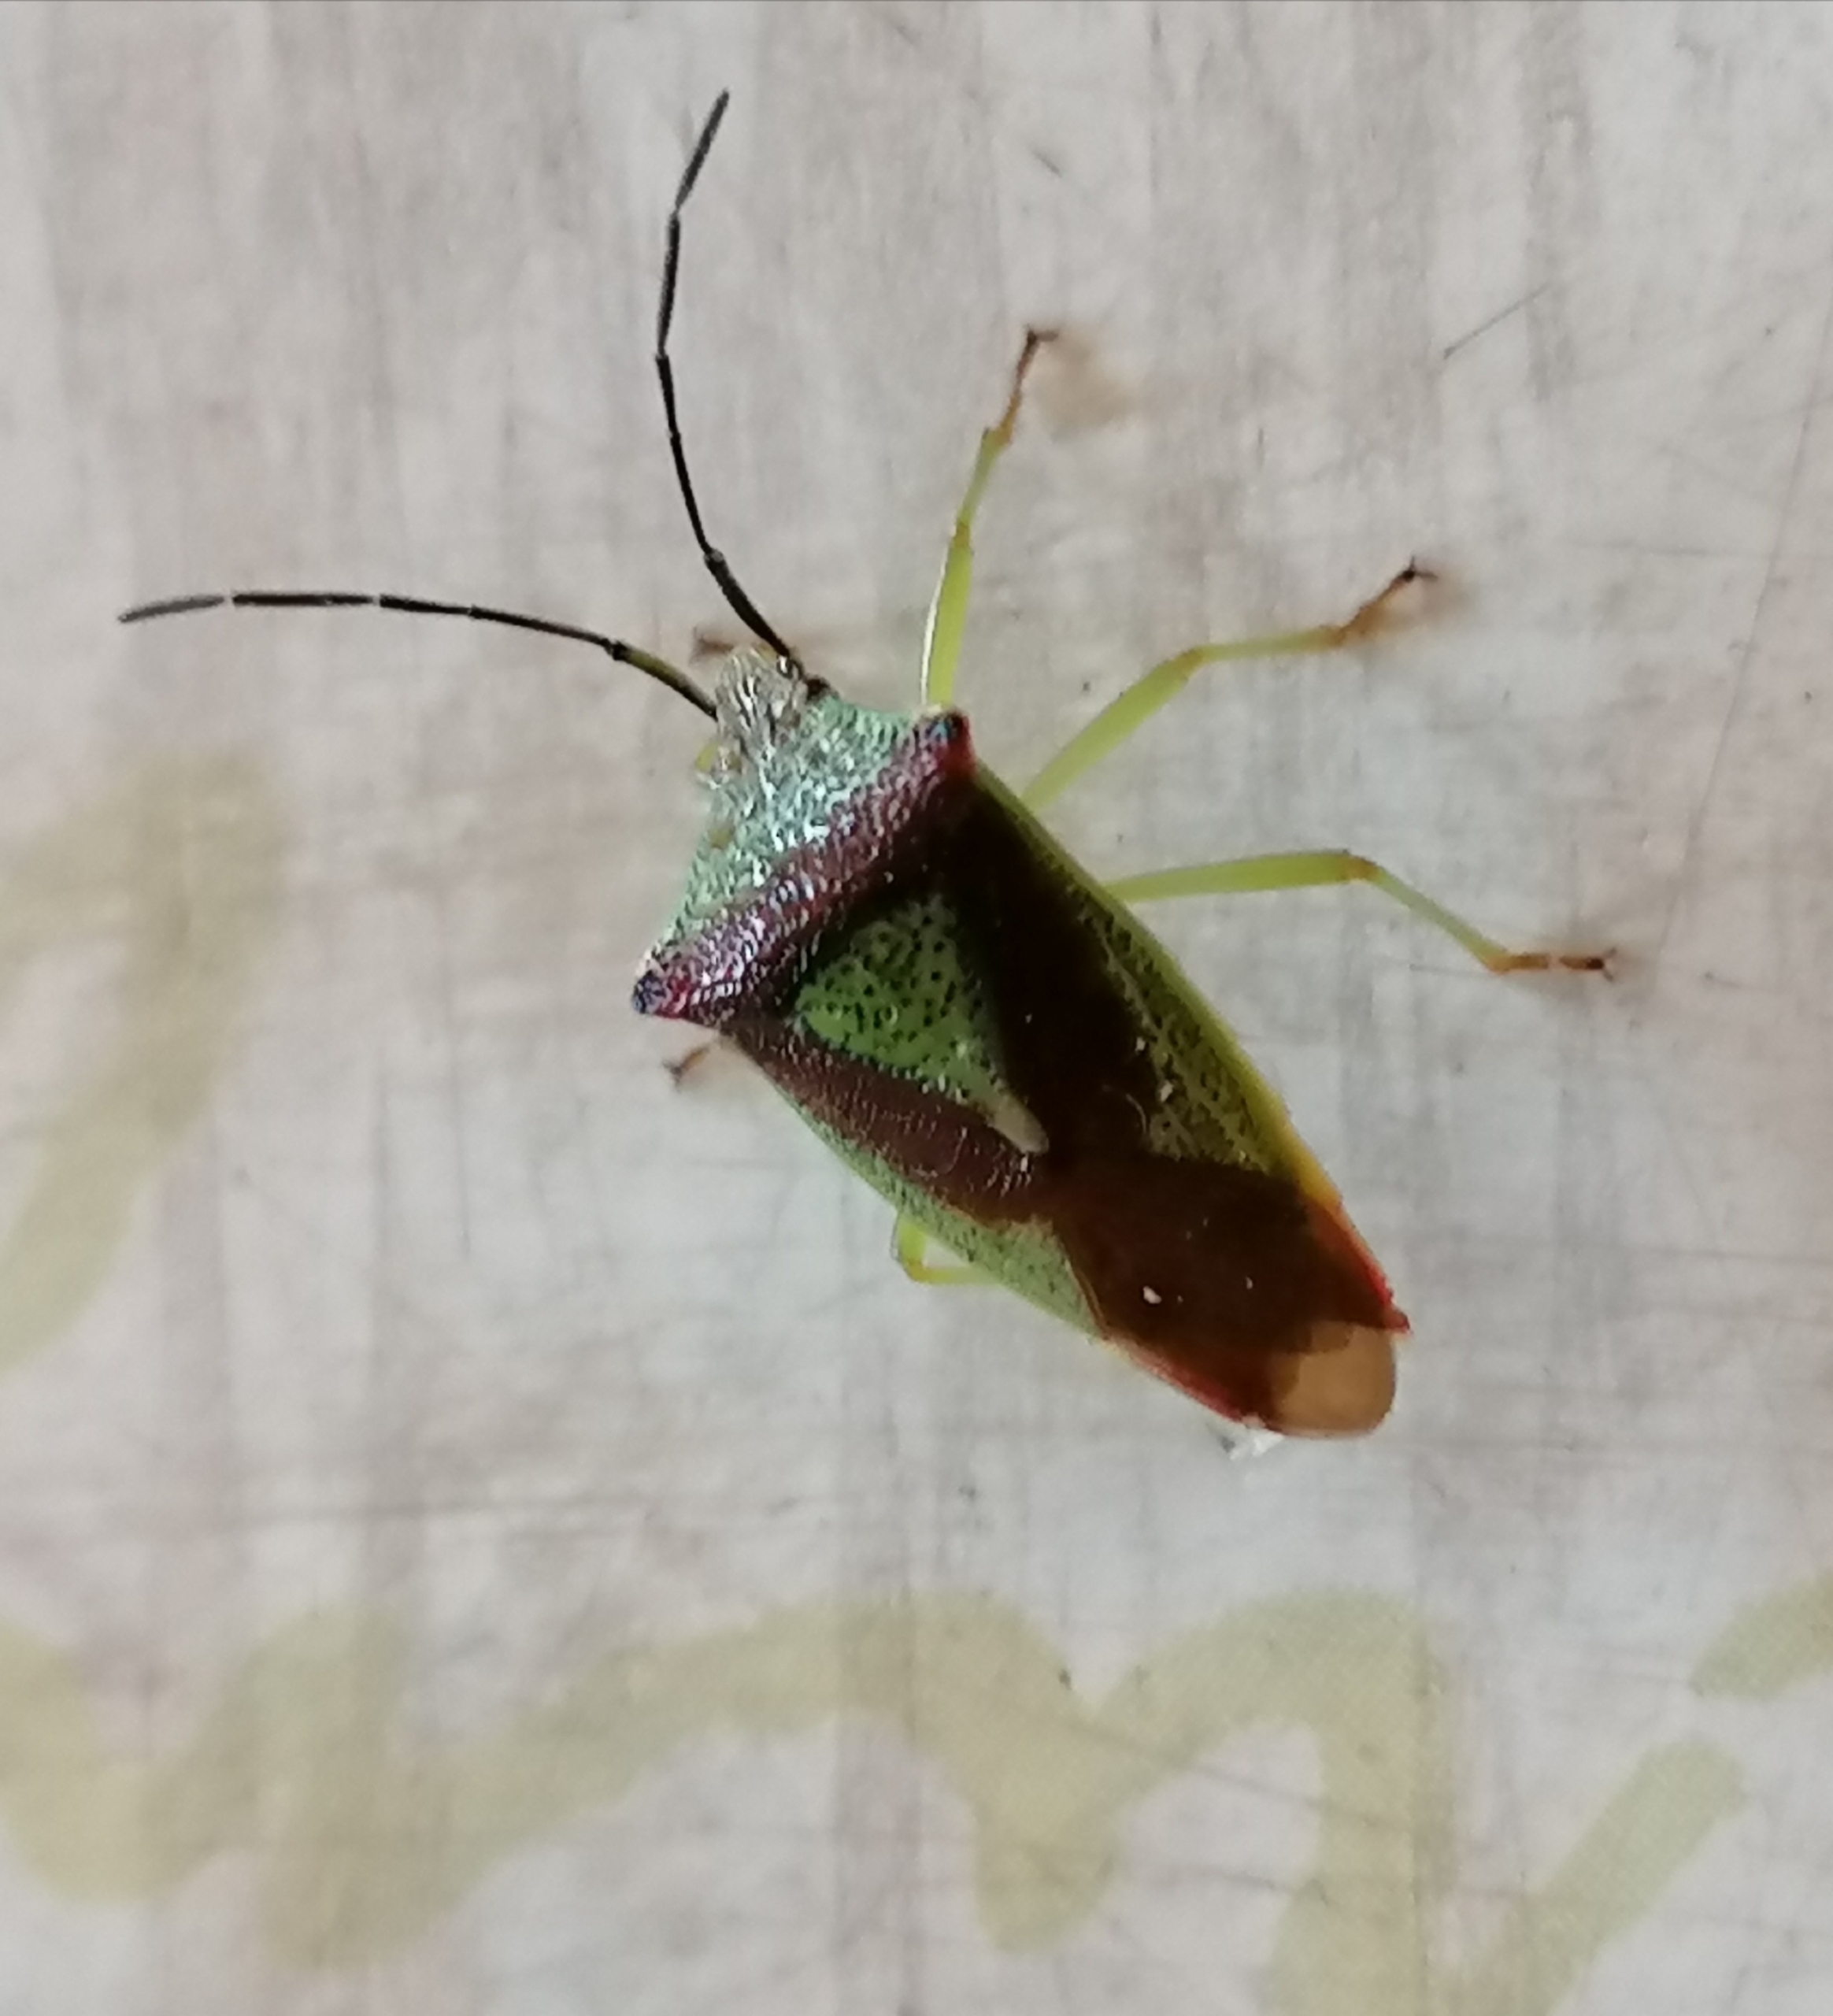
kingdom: Animalia
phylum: Arthropoda
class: Insecta
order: Hemiptera
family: Acanthosomatidae
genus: Acanthosoma
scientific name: Acanthosoma haemorrhoidale
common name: Stor løvtæge
